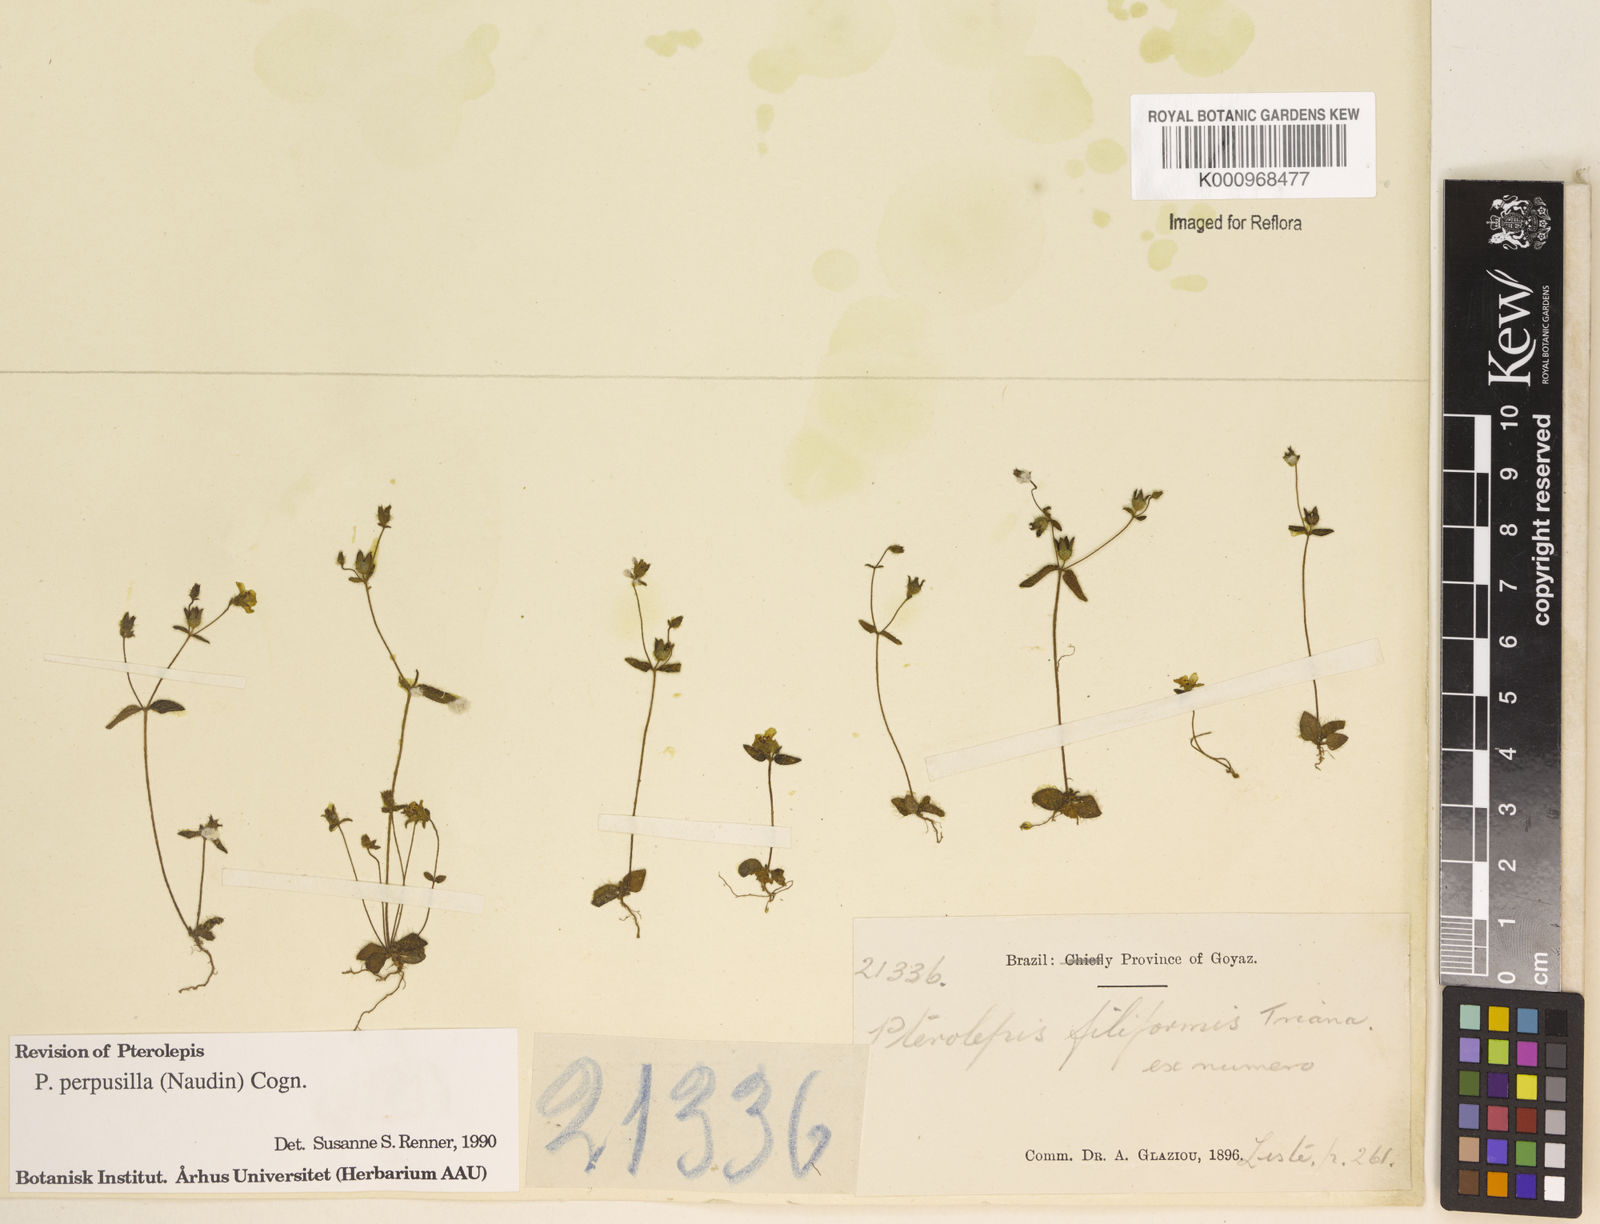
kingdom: Plantae
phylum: Tracheophyta
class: Magnoliopsida
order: Myrtales
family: Melastomataceae
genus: Pterolepis
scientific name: Pterolepis perpusilla
